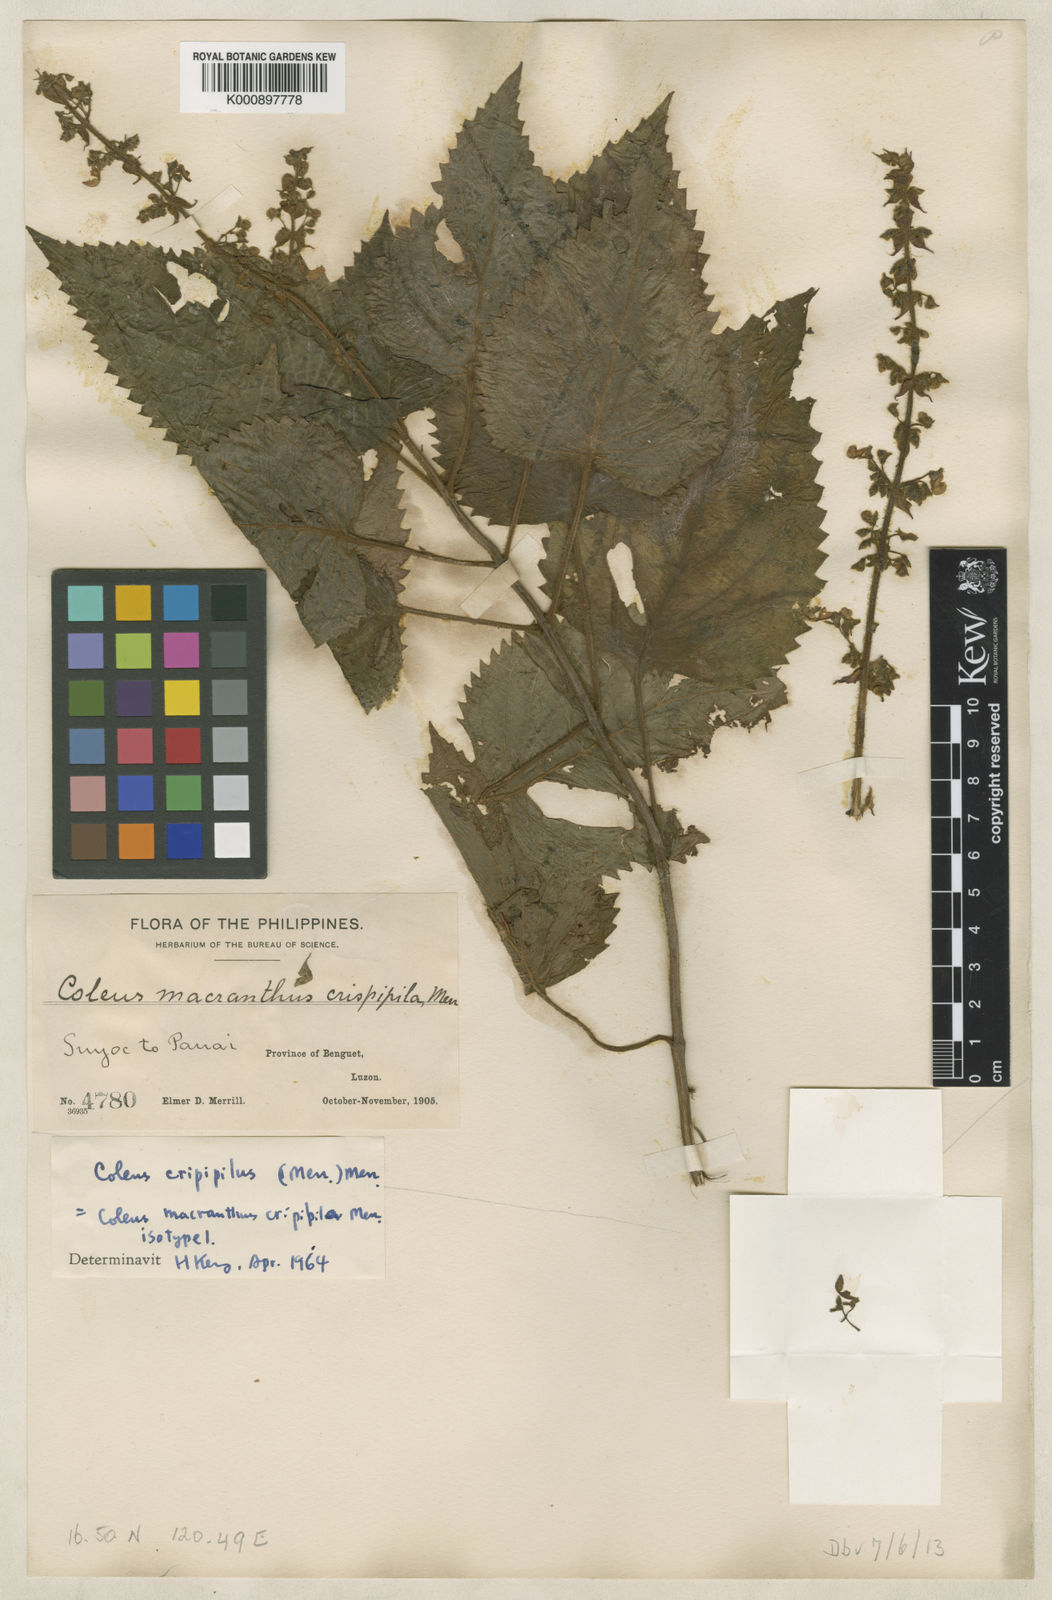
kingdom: Plantae
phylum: Tracheophyta
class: Magnoliopsida
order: Lamiales
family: Lamiaceae
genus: Plectranthus
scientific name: Plectranthus
